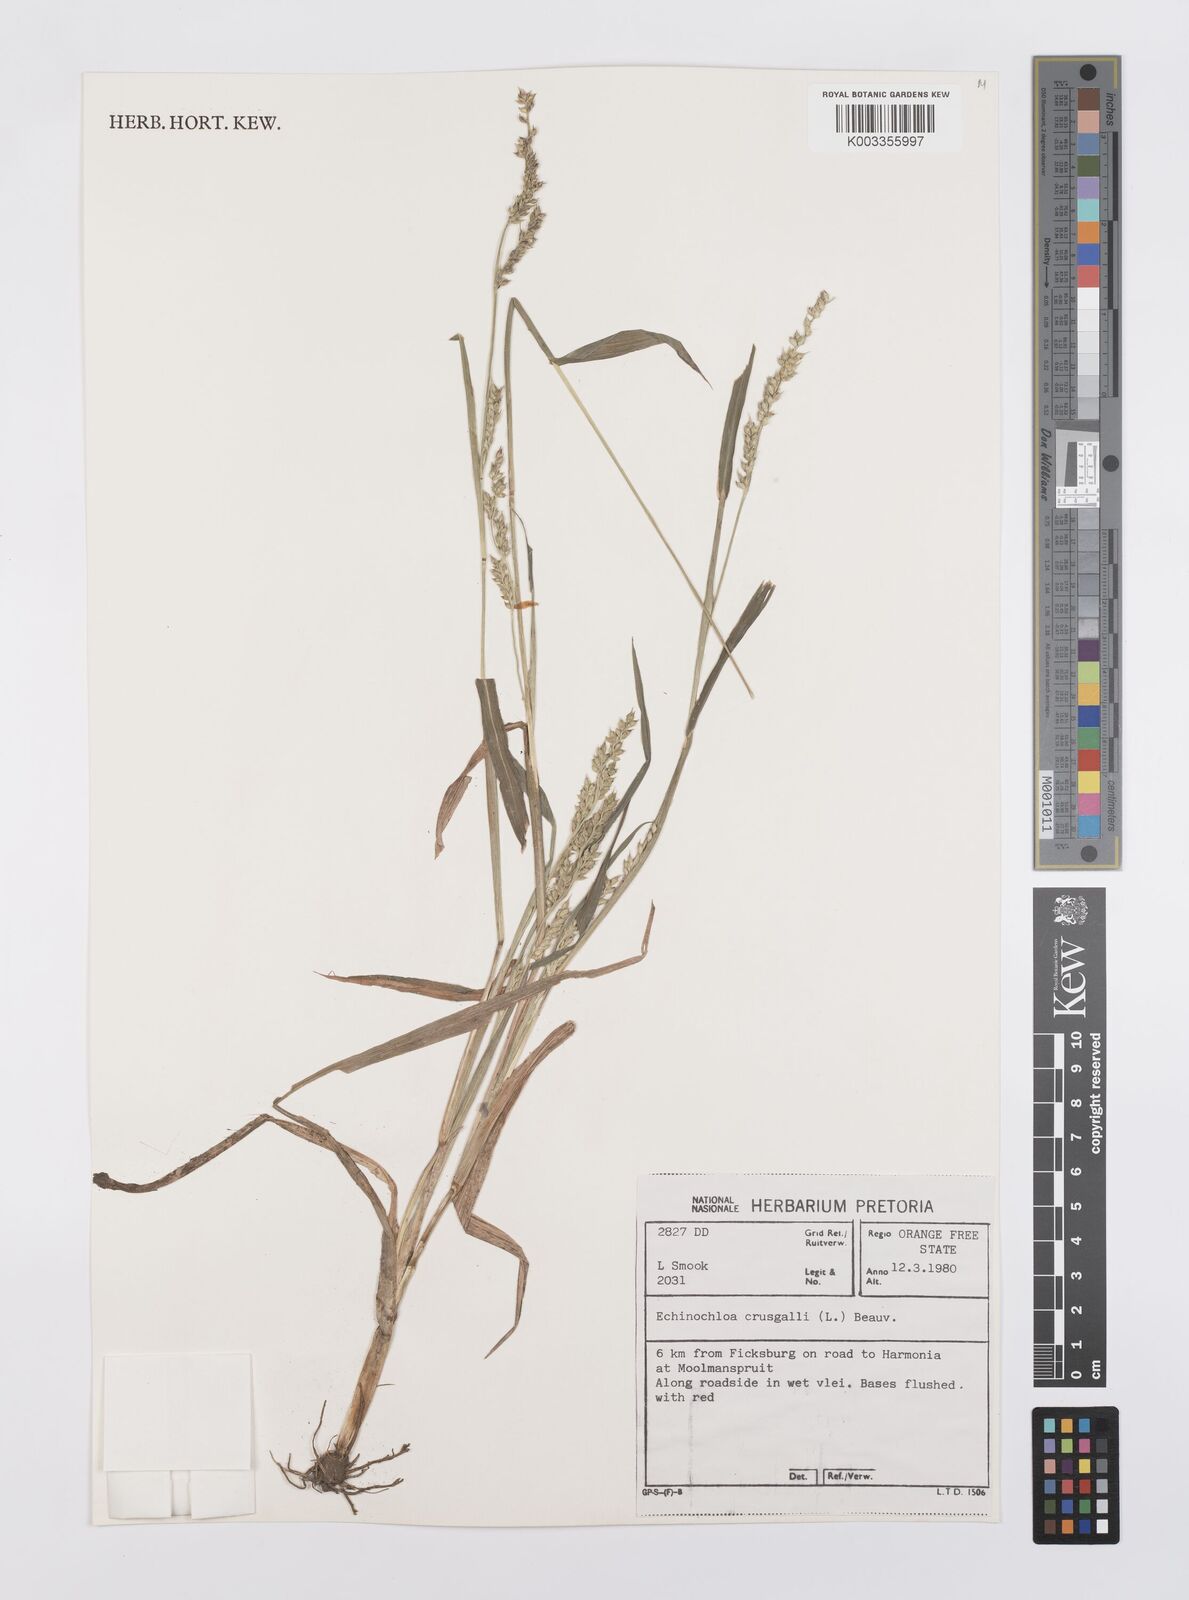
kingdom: Plantae
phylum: Tracheophyta
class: Liliopsida
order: Poales
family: Poaceae
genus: Echinochloa
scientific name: Echinochloa crus-galli
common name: Cockspur
